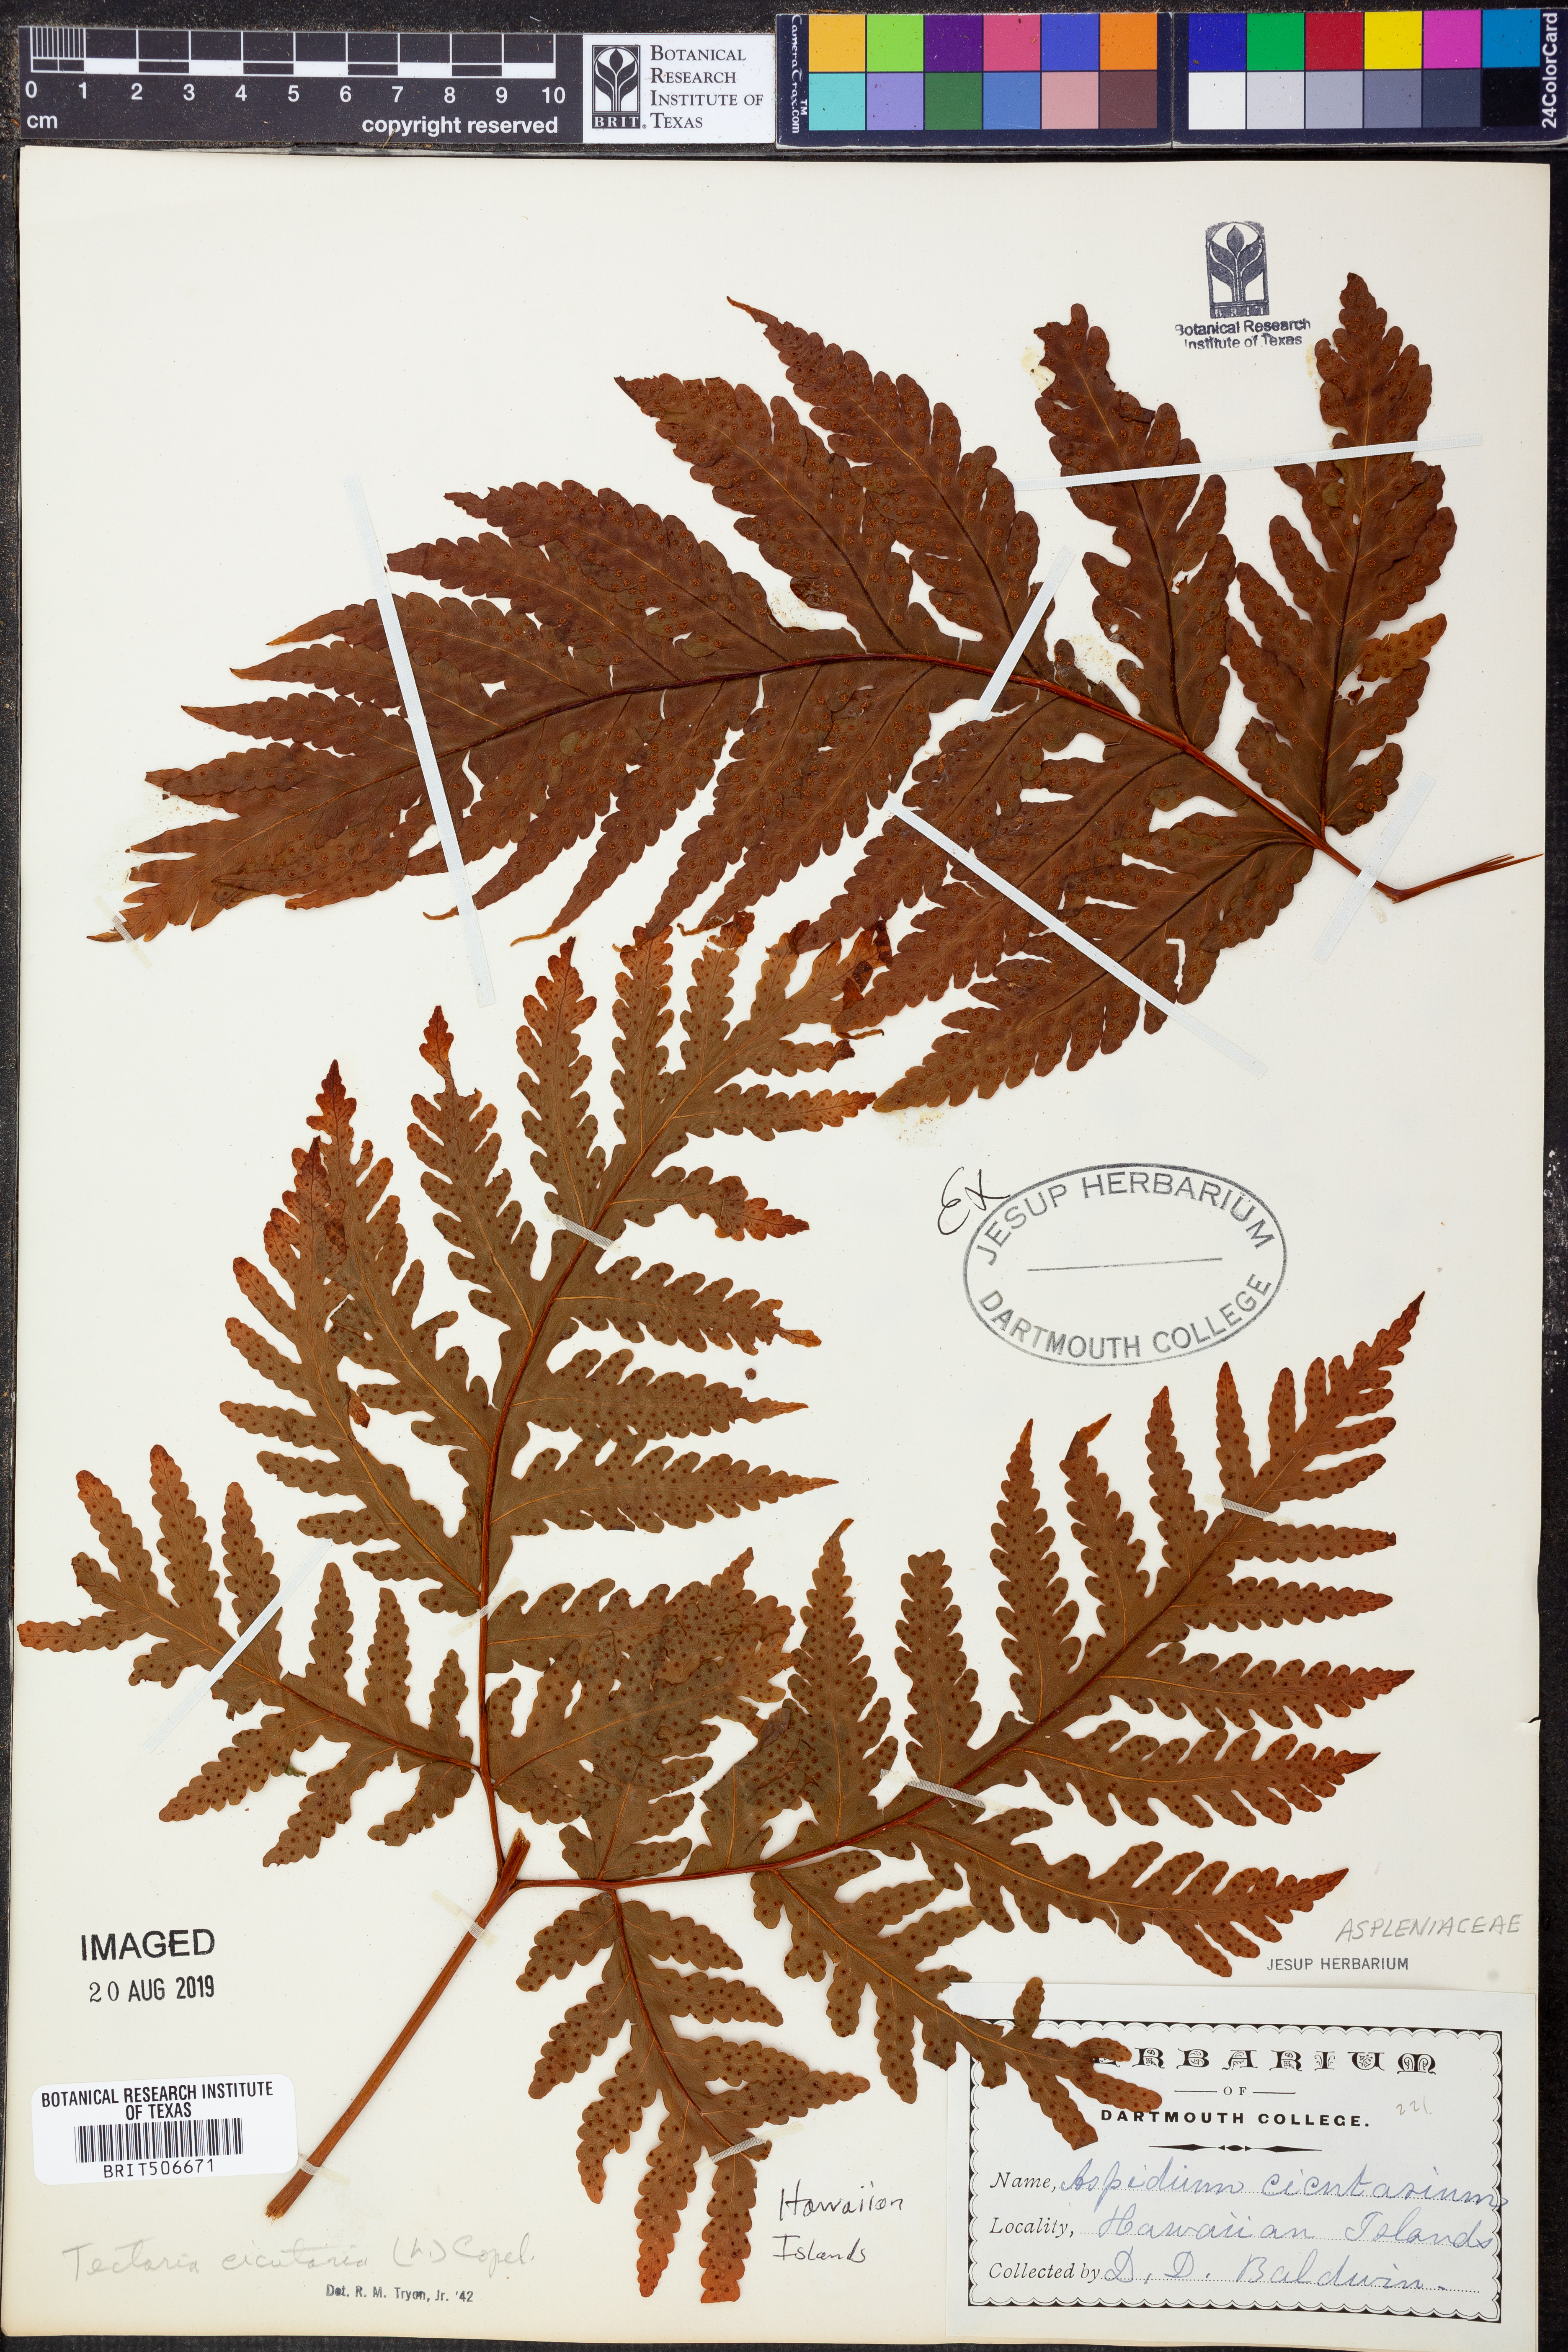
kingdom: Plantae
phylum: Tracheophyta
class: Polypodiopsida
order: Polypodiales
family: Tectariaceae
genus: Tectaria
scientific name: Tectaria cicutaria
